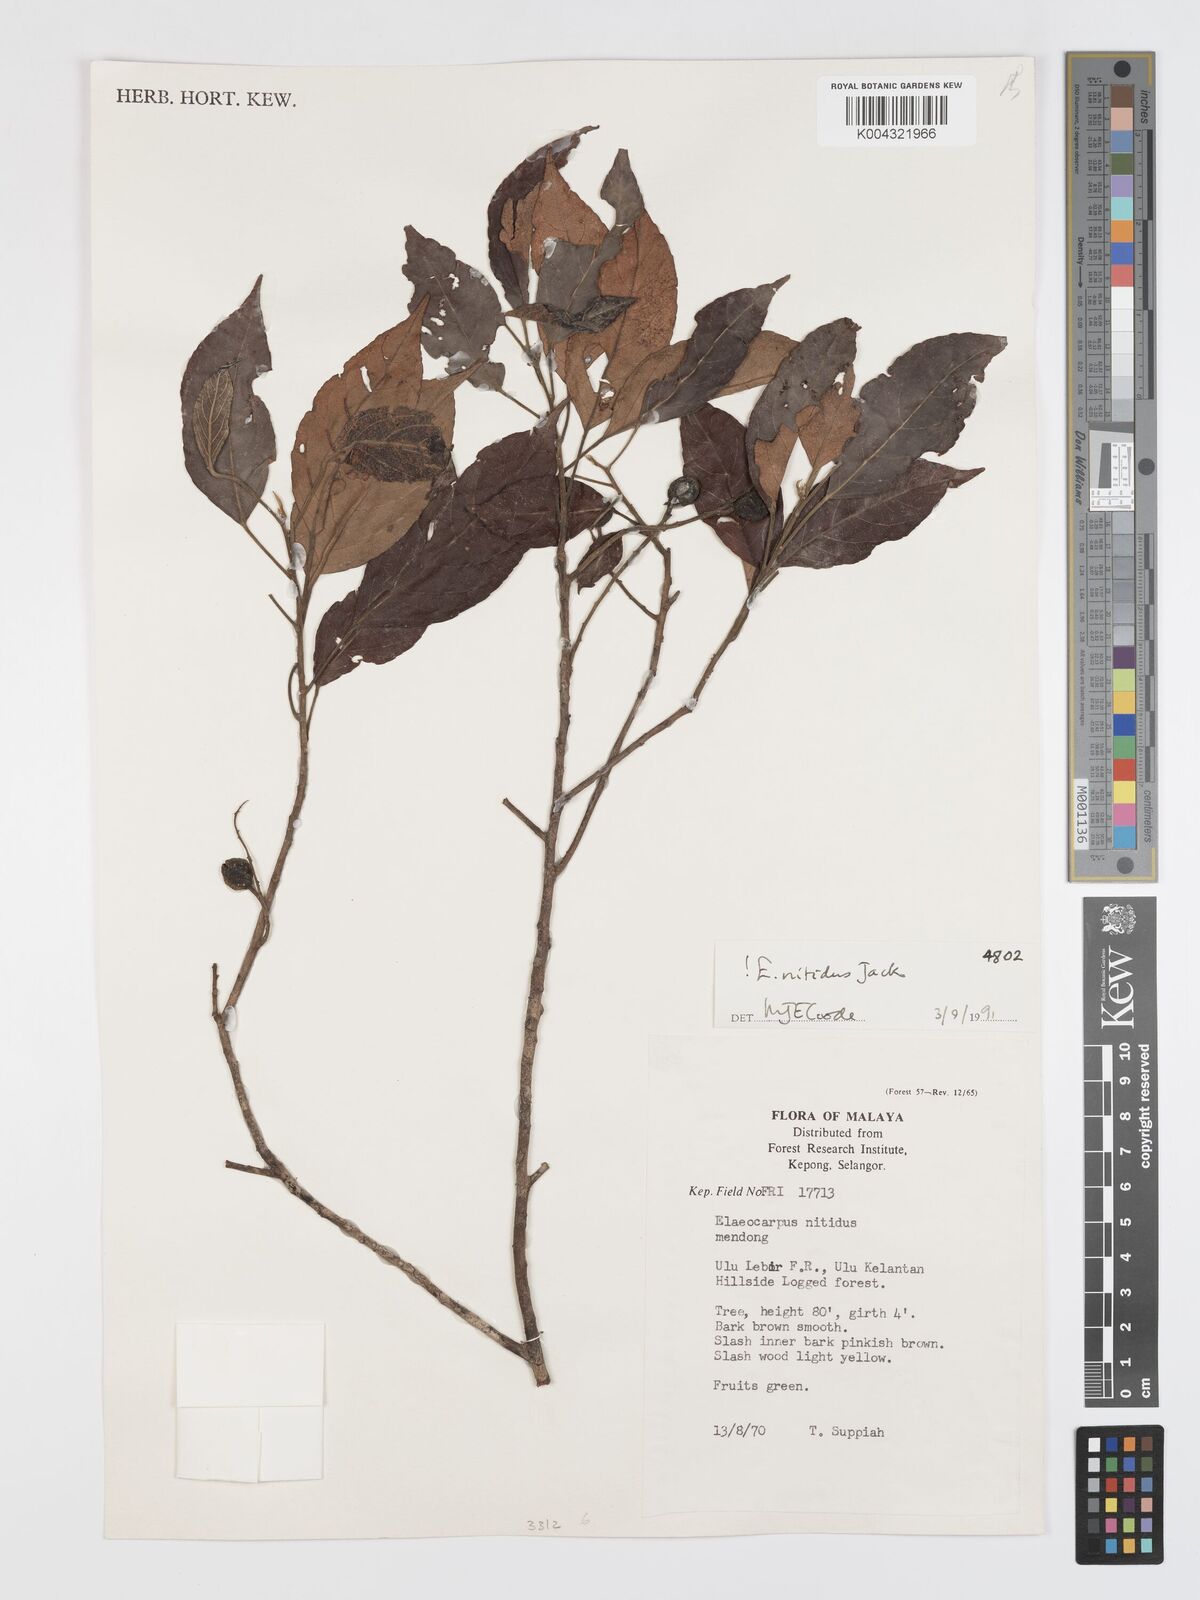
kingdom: Plantae
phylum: Tracheophyta
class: Magnoliopsida
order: Oxalidales
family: Elaeocarpaceae
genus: Elaeocarpus
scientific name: Elaeocarpus nitidus
